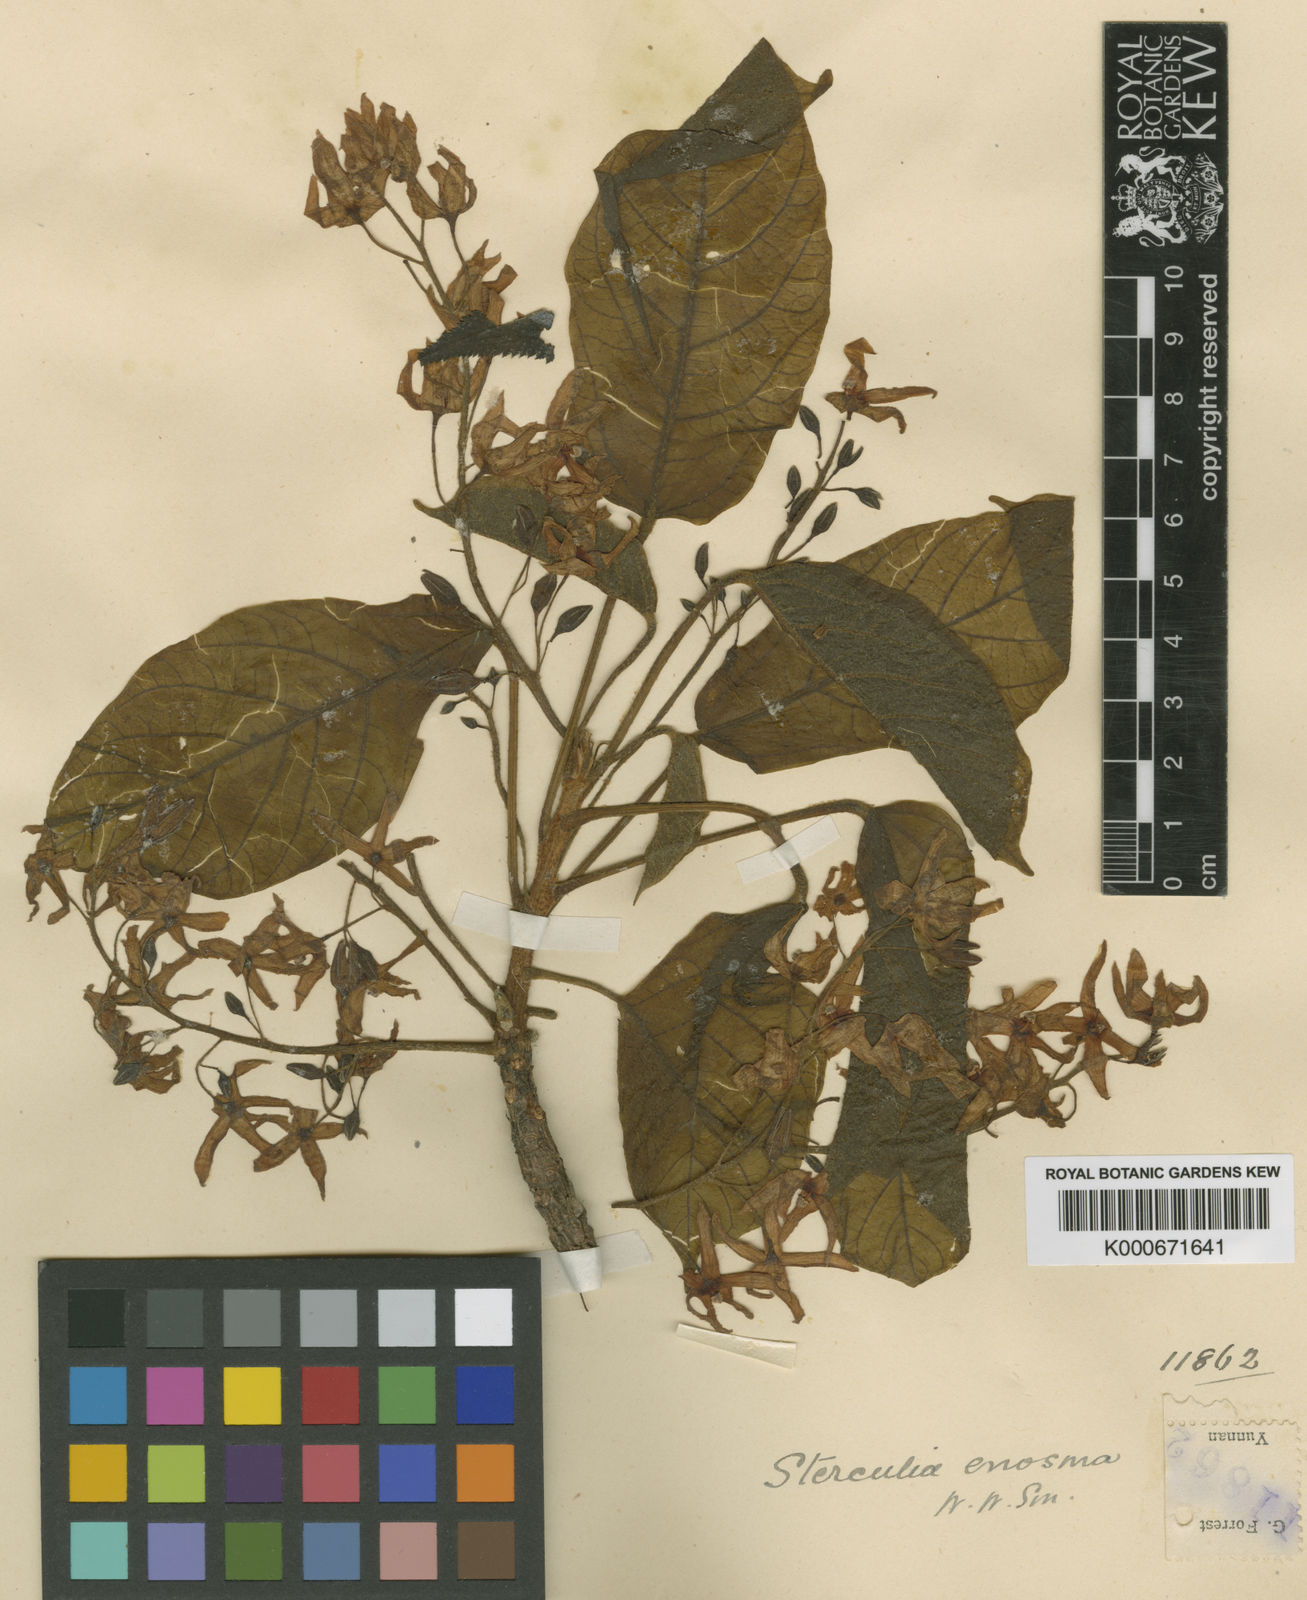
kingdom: Plantae
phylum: Tracheophyta
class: Magnoliopsida
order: Malvales
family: Malvaceae
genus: Sterculia
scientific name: Sterculia euosma
